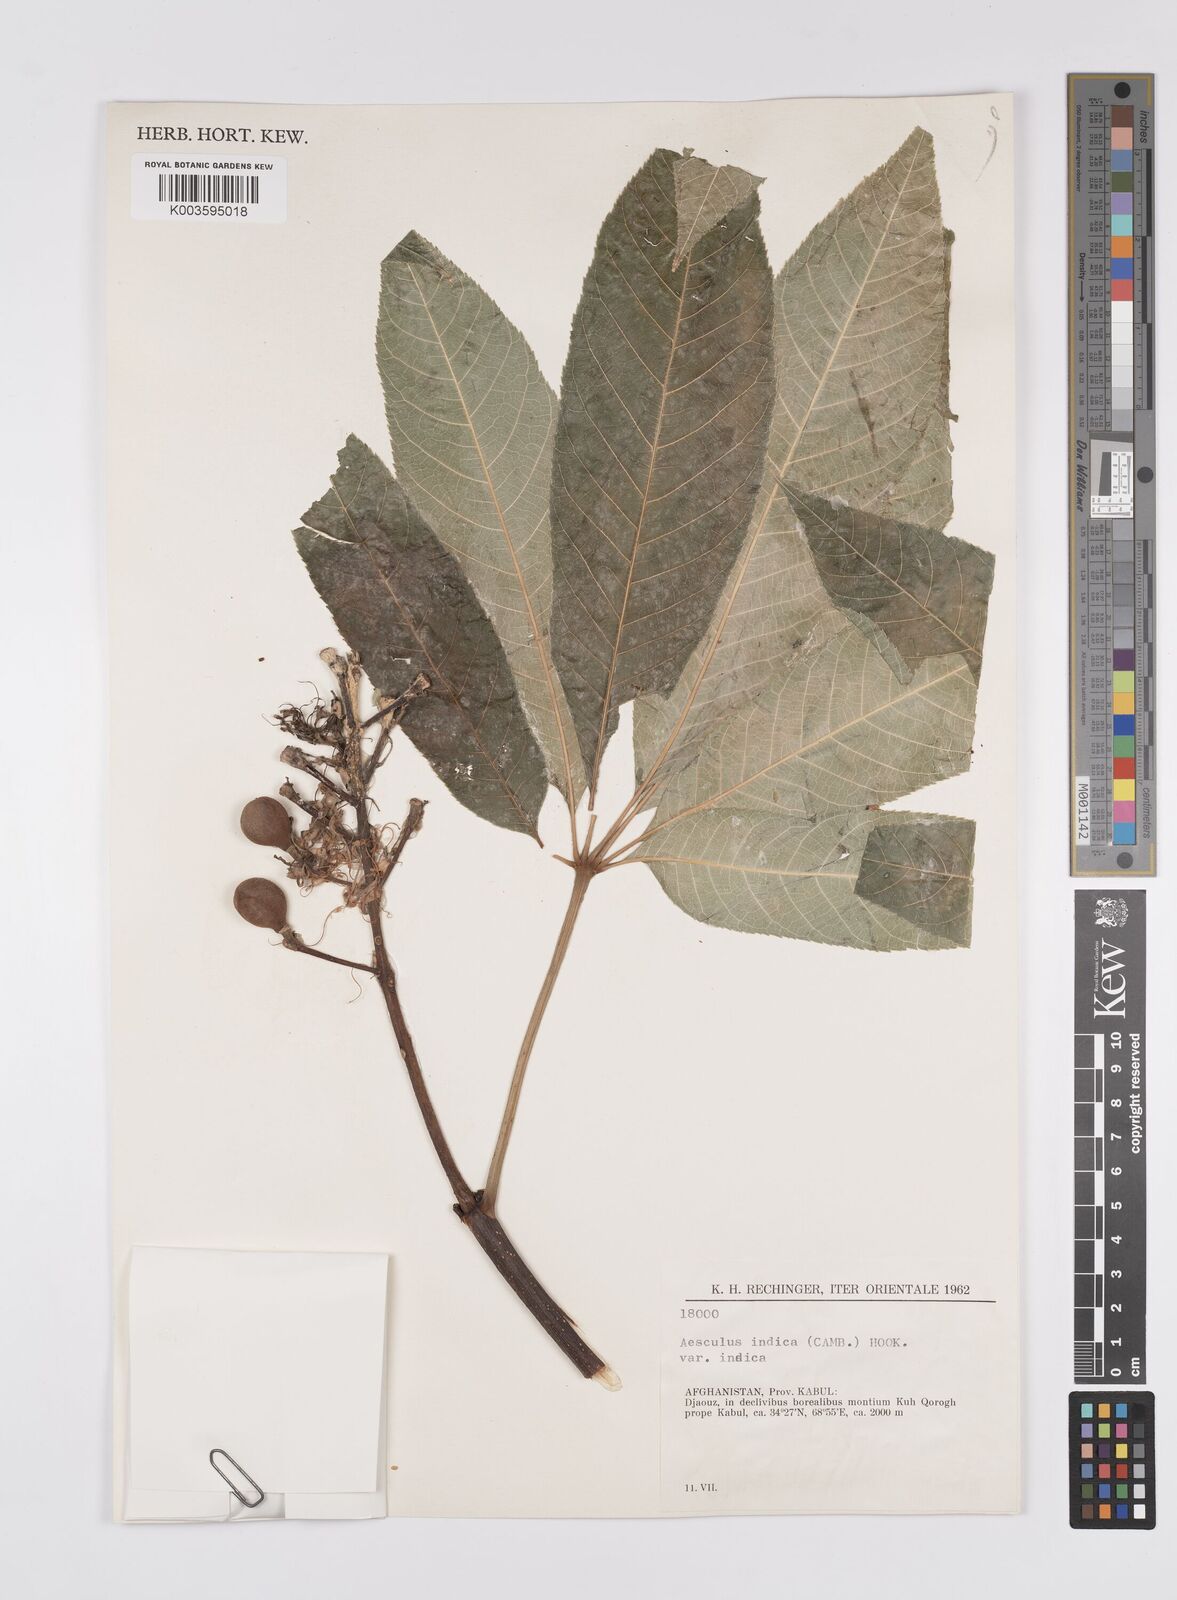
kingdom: Plantae
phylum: Tracheophyta
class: Magnoliopsida
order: Sapindales
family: Sapindaceae
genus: Aesculus
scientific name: Aesculus indica
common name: Indian horse-chestnut
